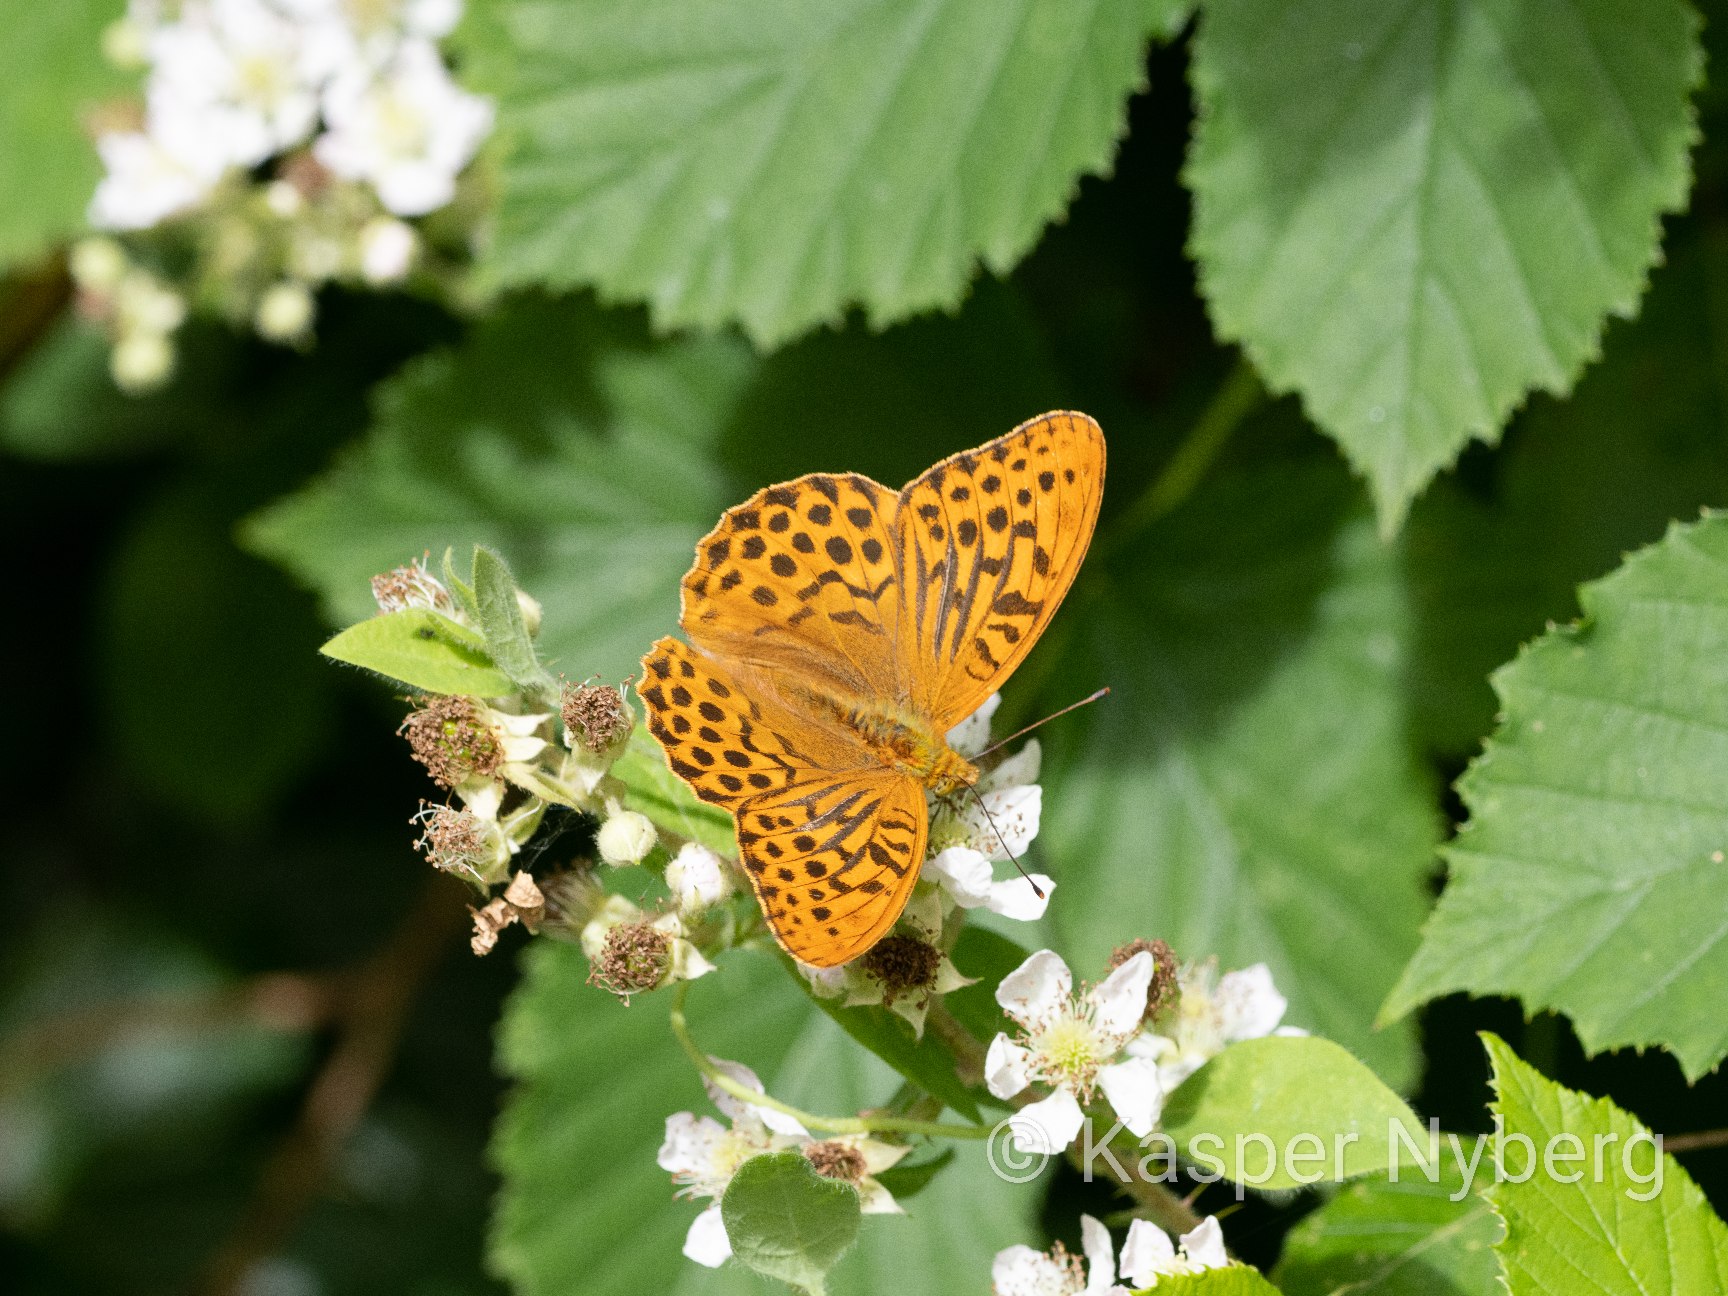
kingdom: Animalia
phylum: Arthropoda
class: Insecta
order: Lepidoptera
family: Nymphalidae
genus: Argynnis
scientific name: Argynnis paphia
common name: Kejserkåbe
